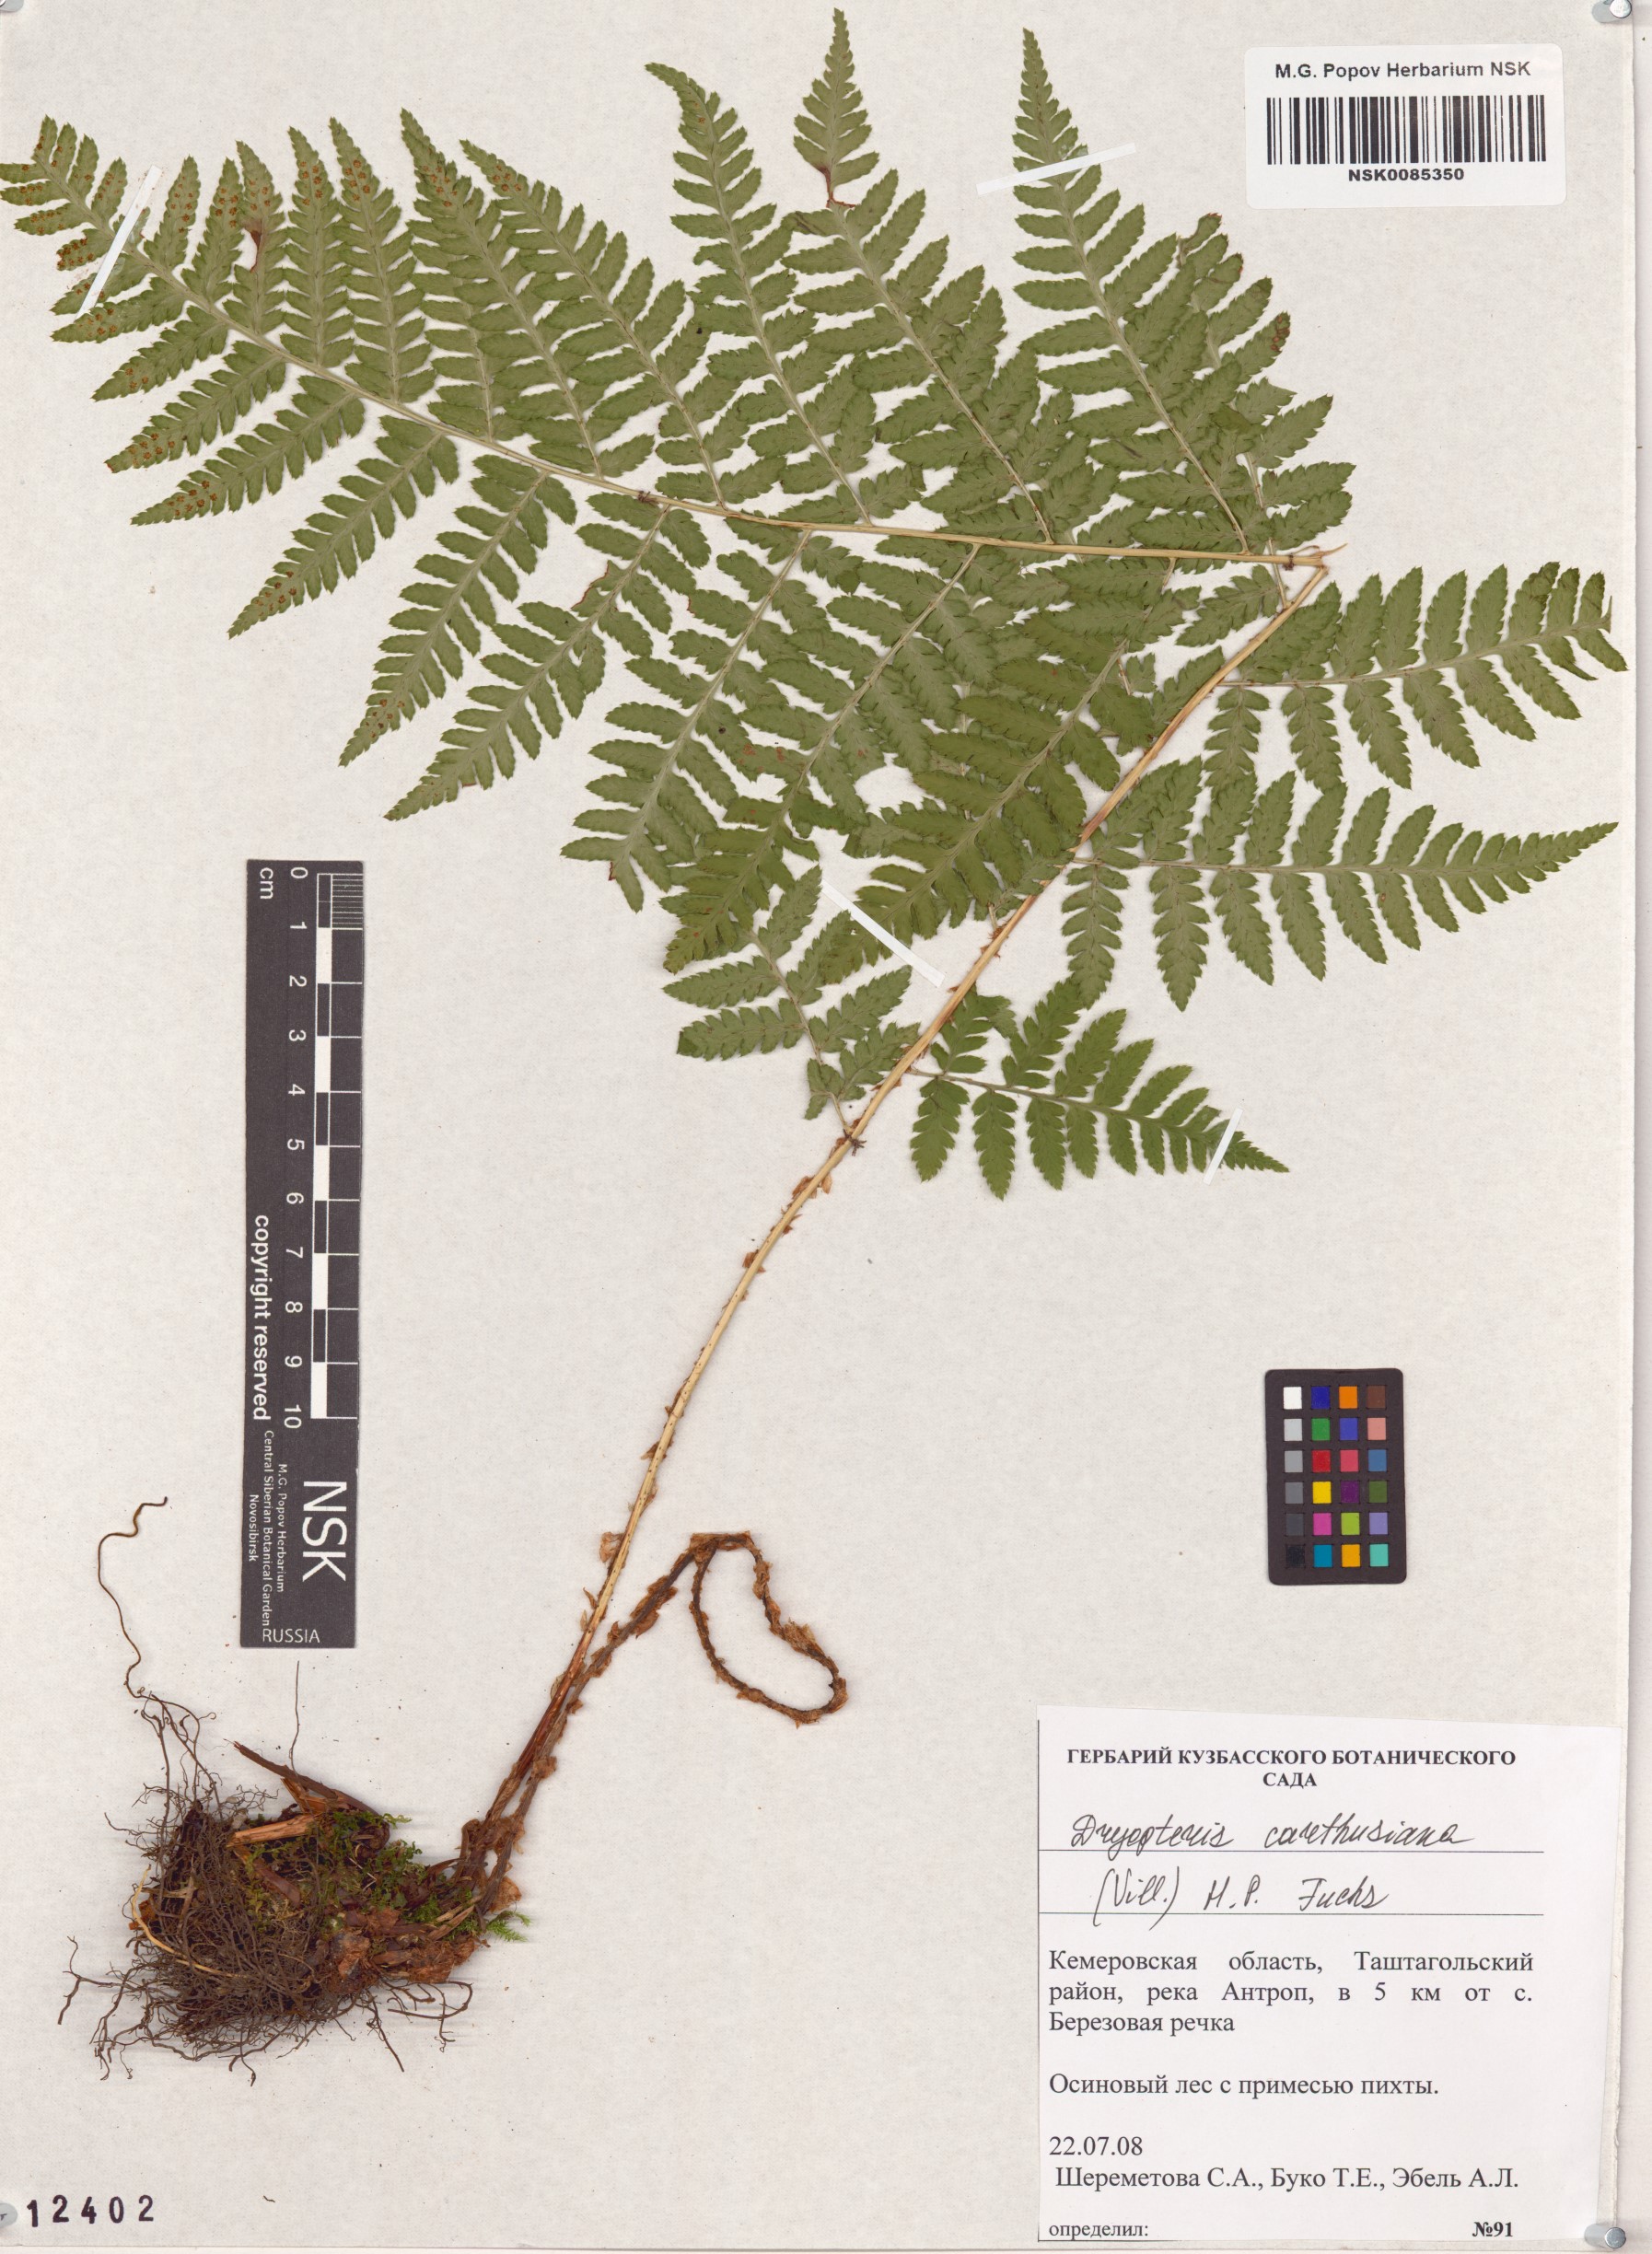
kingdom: Plantae
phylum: Tracheophyta
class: Polypodiopsida
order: Polypodiales
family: Dryopteridaceae
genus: Dryopteris
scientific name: Dryopteris carthusiana
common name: Narrow buckler-fern
